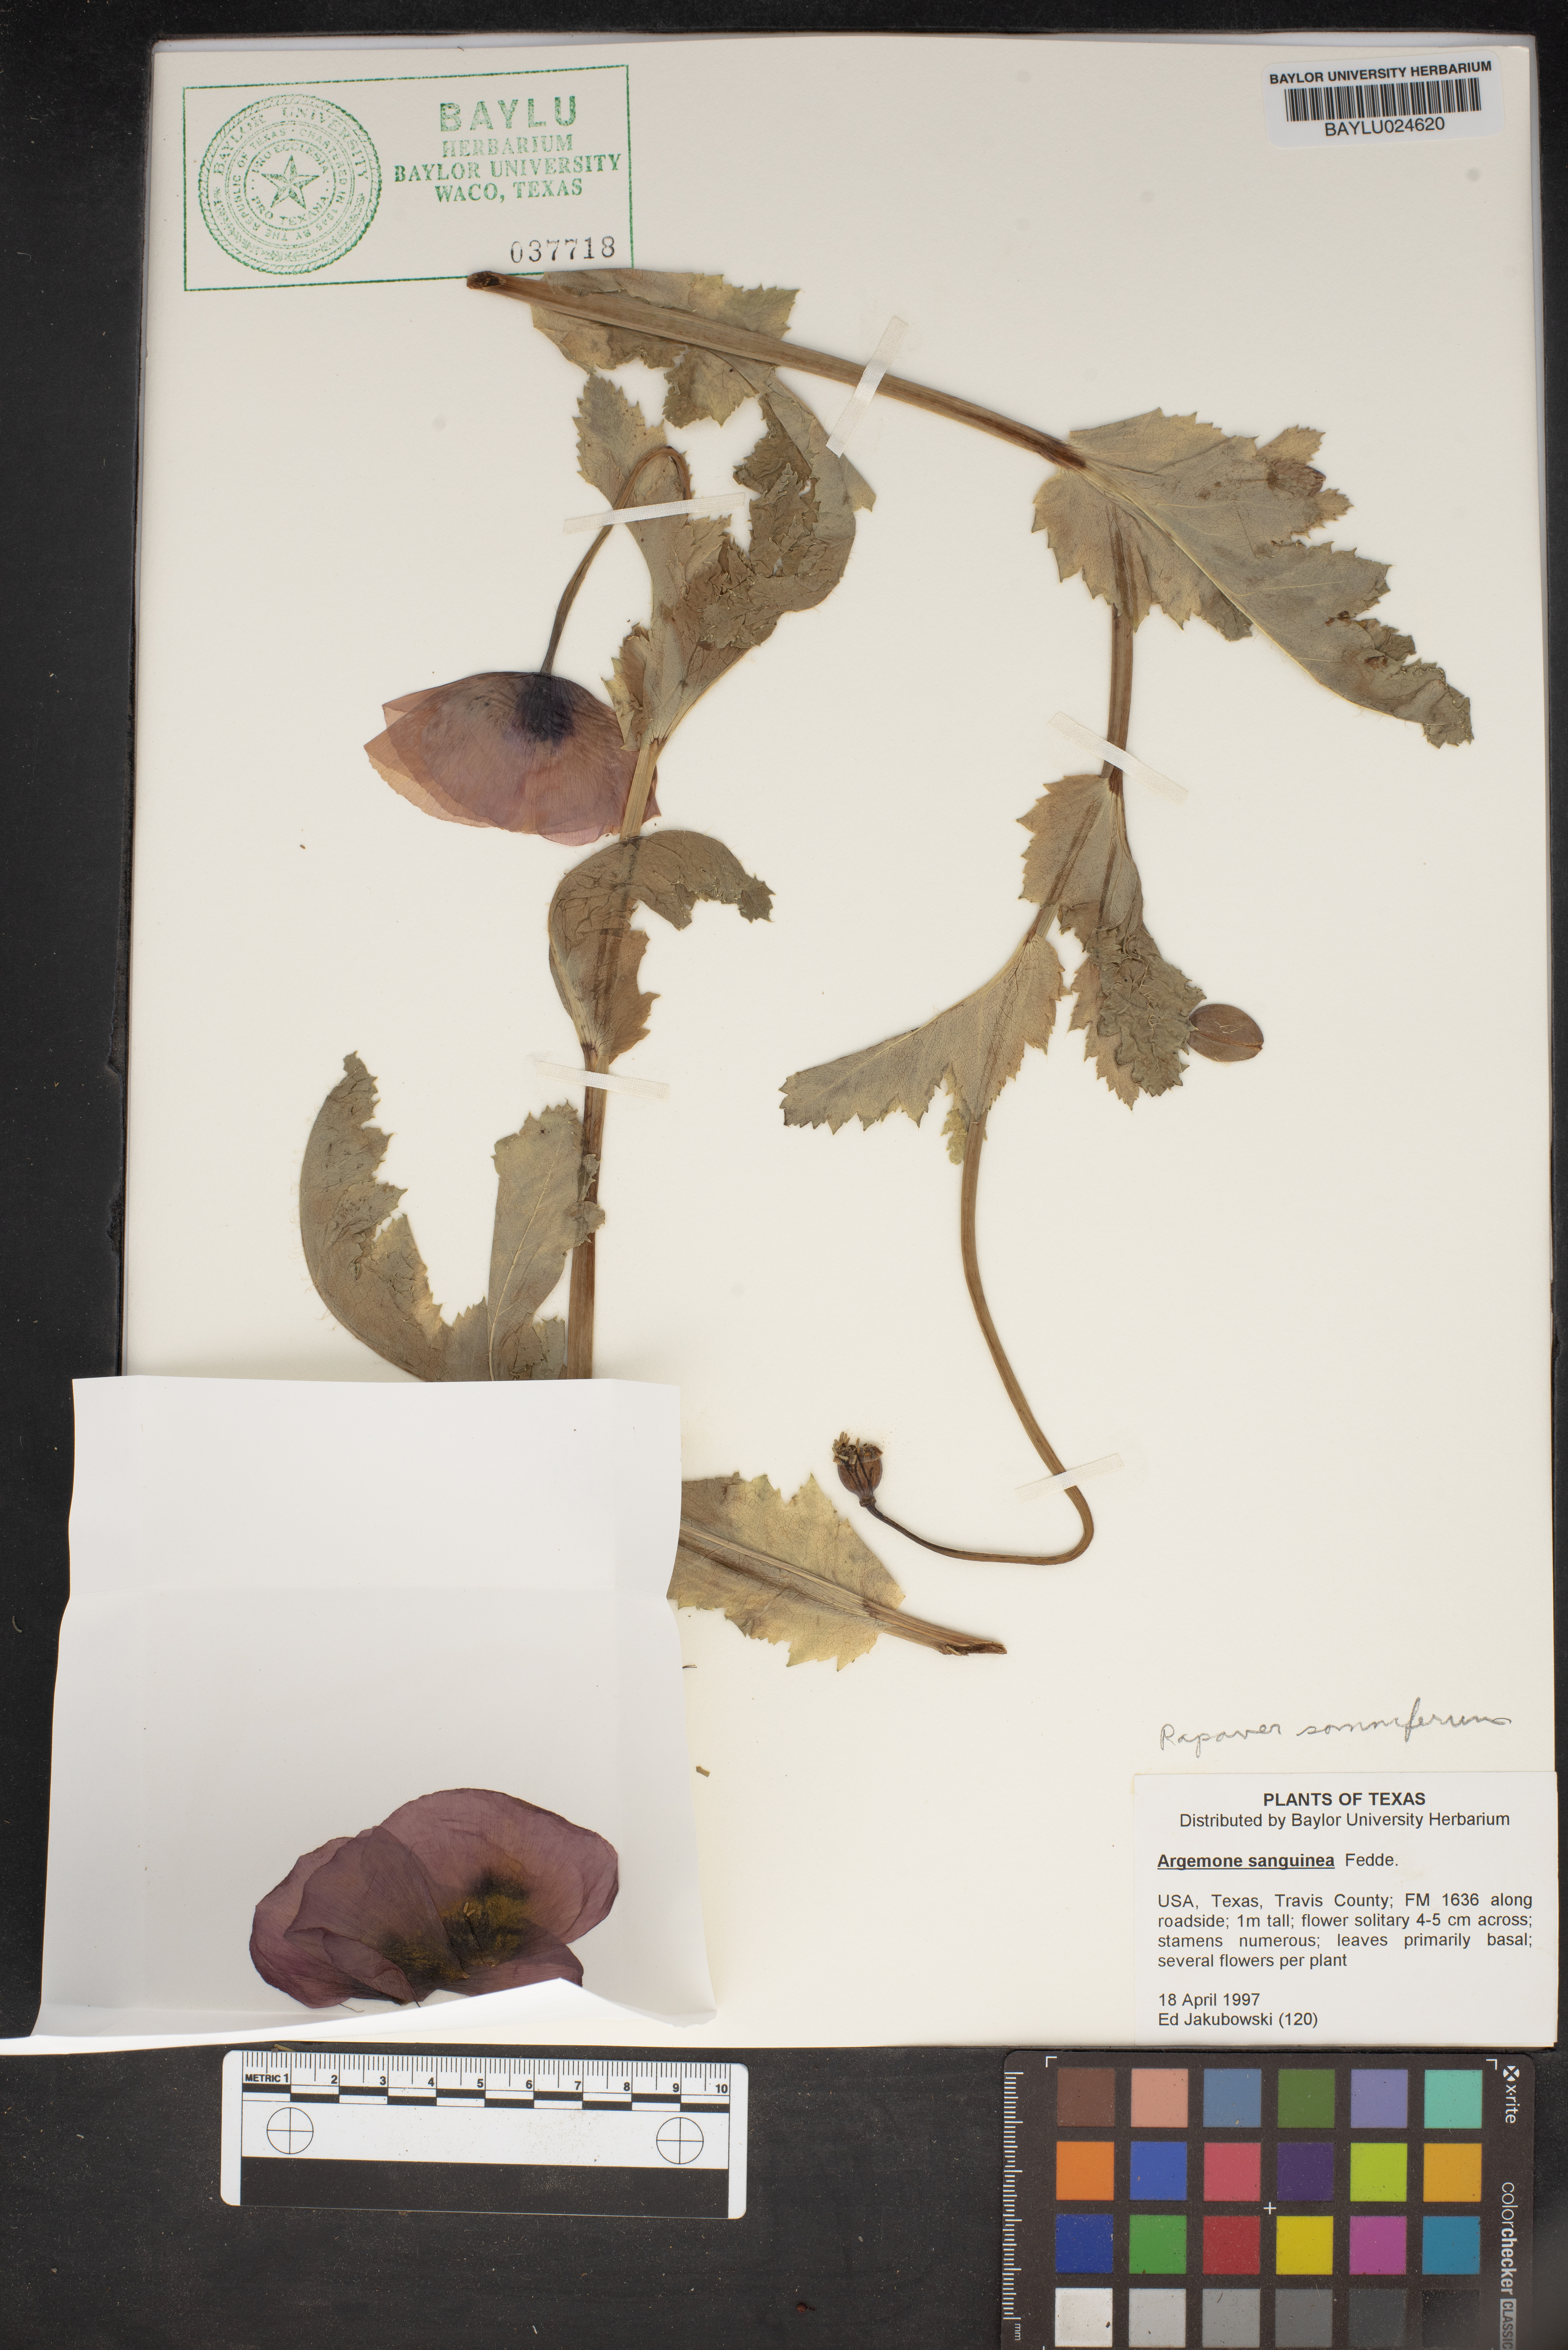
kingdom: Plantae
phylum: Tracheophyta
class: Magnoliopsida
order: Ranunculales
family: Papaveraceae
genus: Argemone
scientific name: Argemone sanguinea
